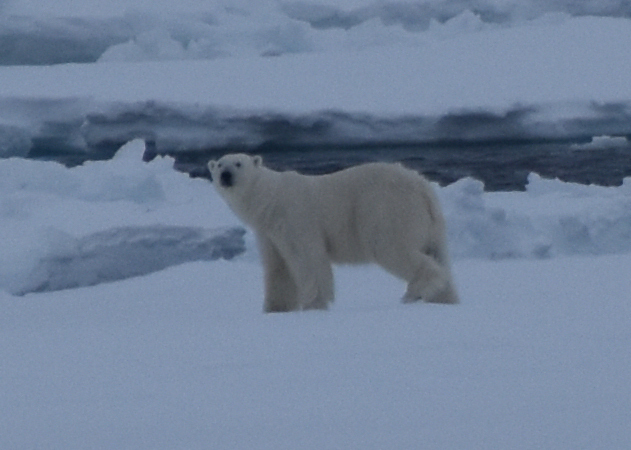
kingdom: Animalia
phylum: Chordata
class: Mammalia
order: Carnivora
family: Ursidae
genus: Ursus
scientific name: Ursus maritimus
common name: Polar Bear
